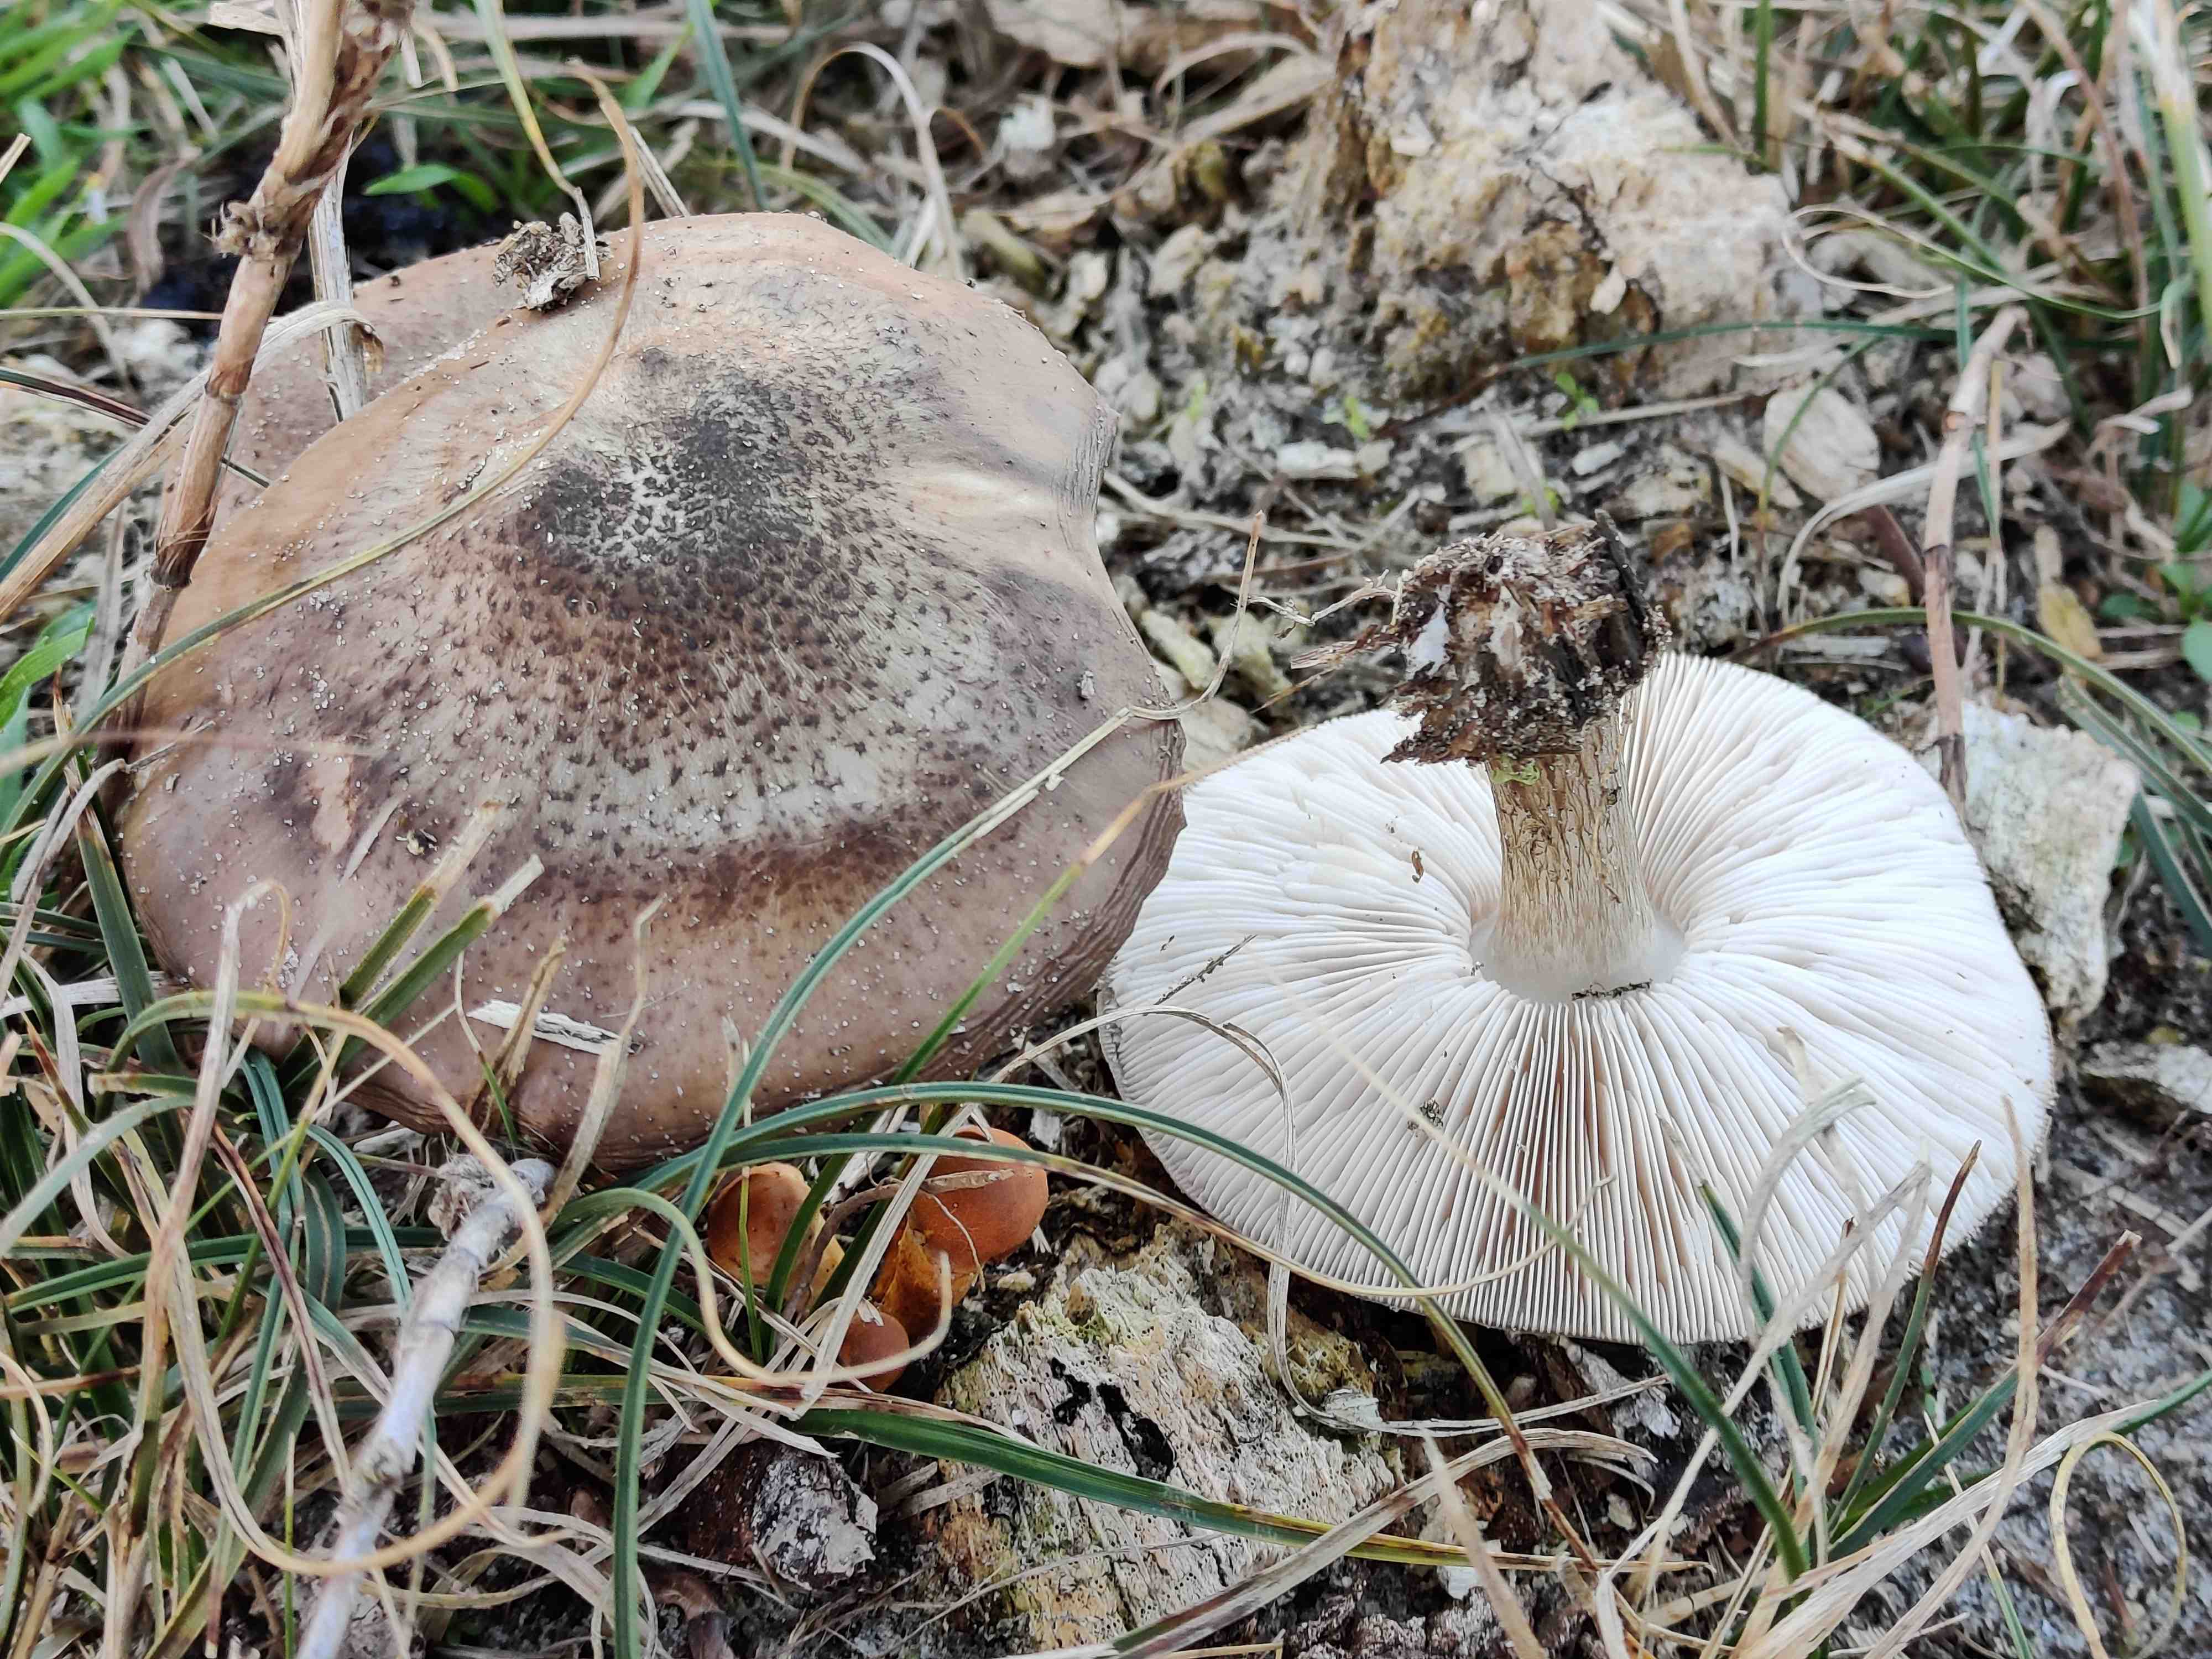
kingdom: Fungi
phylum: Basidiomycota
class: Agaricomycetes
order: Agaricales
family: Tricholomataceae
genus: Melanoleuca
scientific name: Melanoleuca
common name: munkehat
